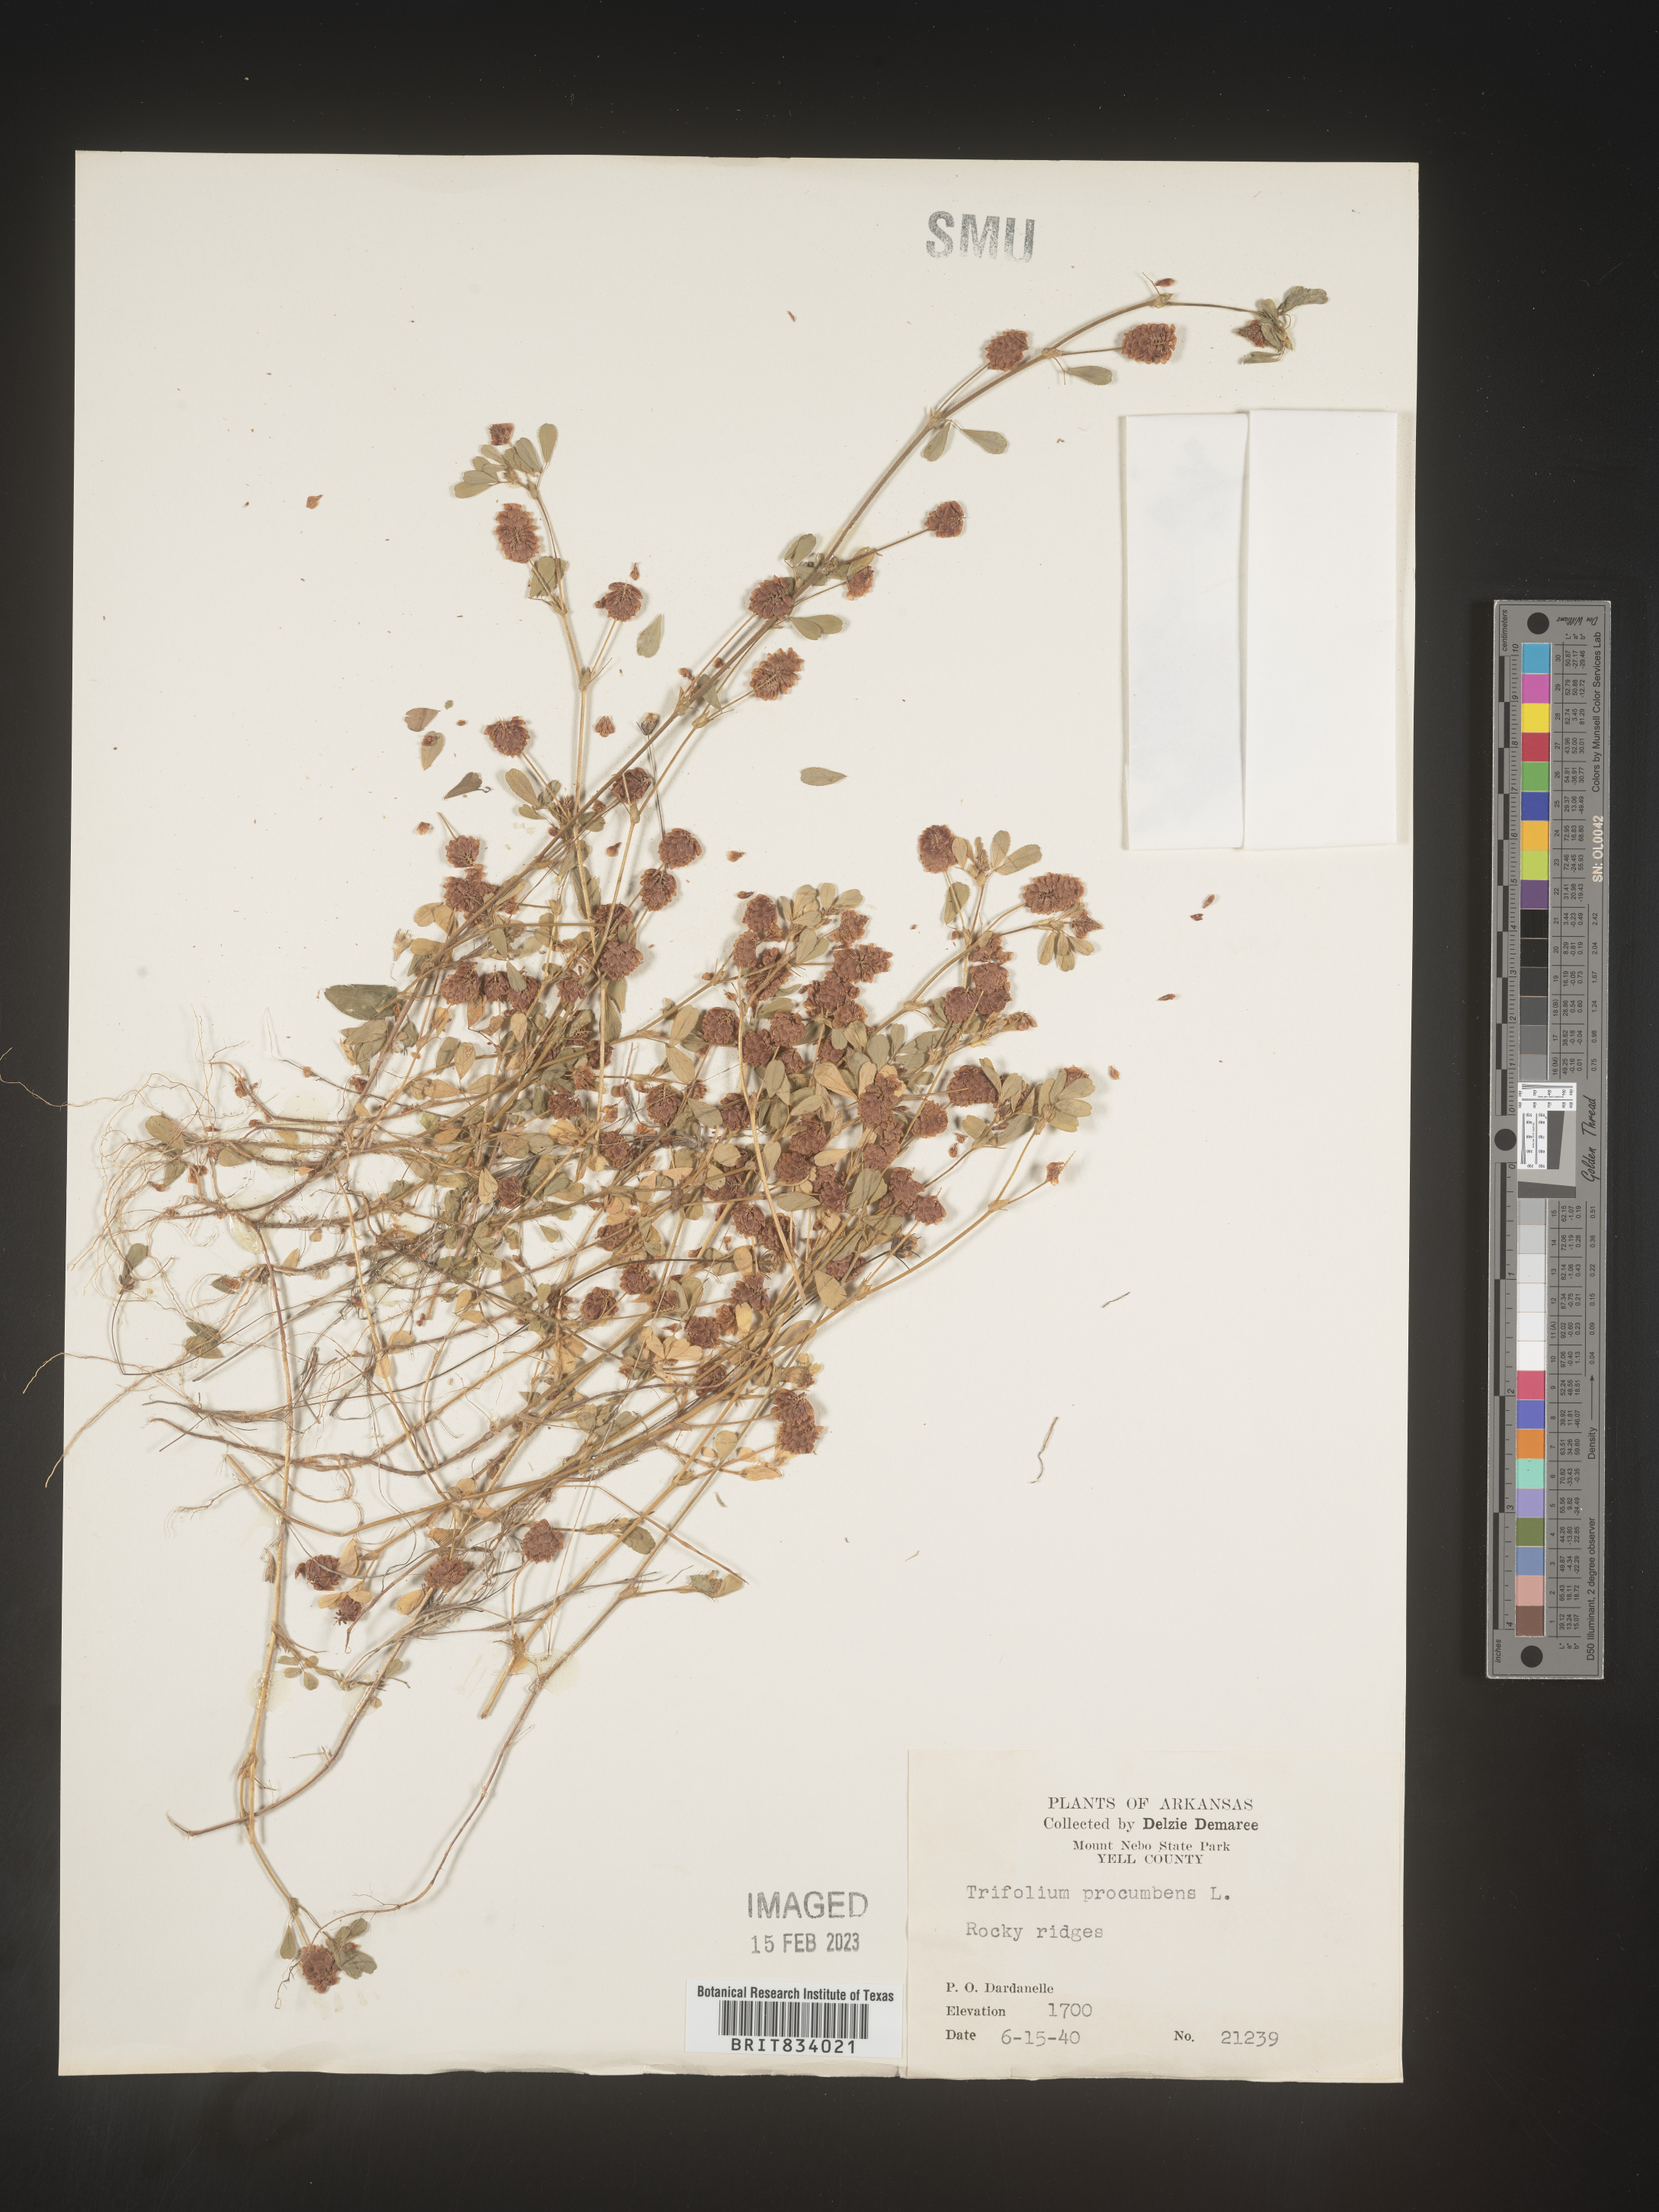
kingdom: Plantae
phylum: Tracheophyta
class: Magnoliopsida
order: Fabales
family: Fabaceae
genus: Trifolium
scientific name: Trifolium campestre
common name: Field clover
